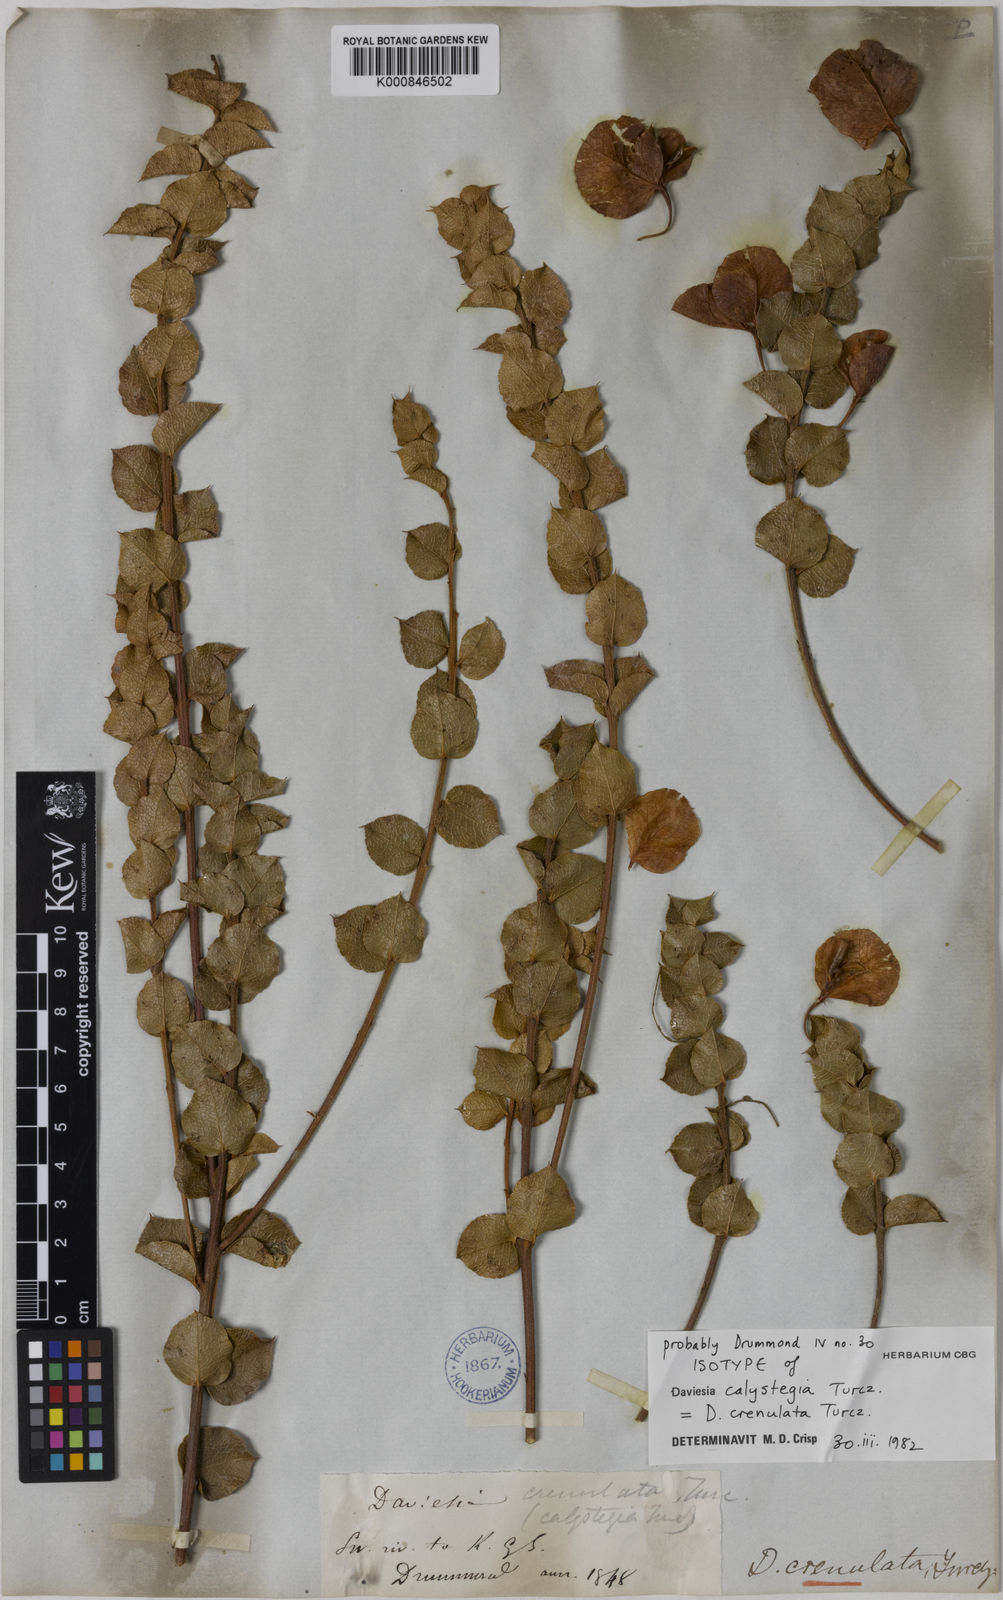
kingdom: Plantae
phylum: Tracheophyta
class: Magnoliopsida
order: Fabales
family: Fabaceae
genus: Daviesia
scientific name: Daviesia crenulata
